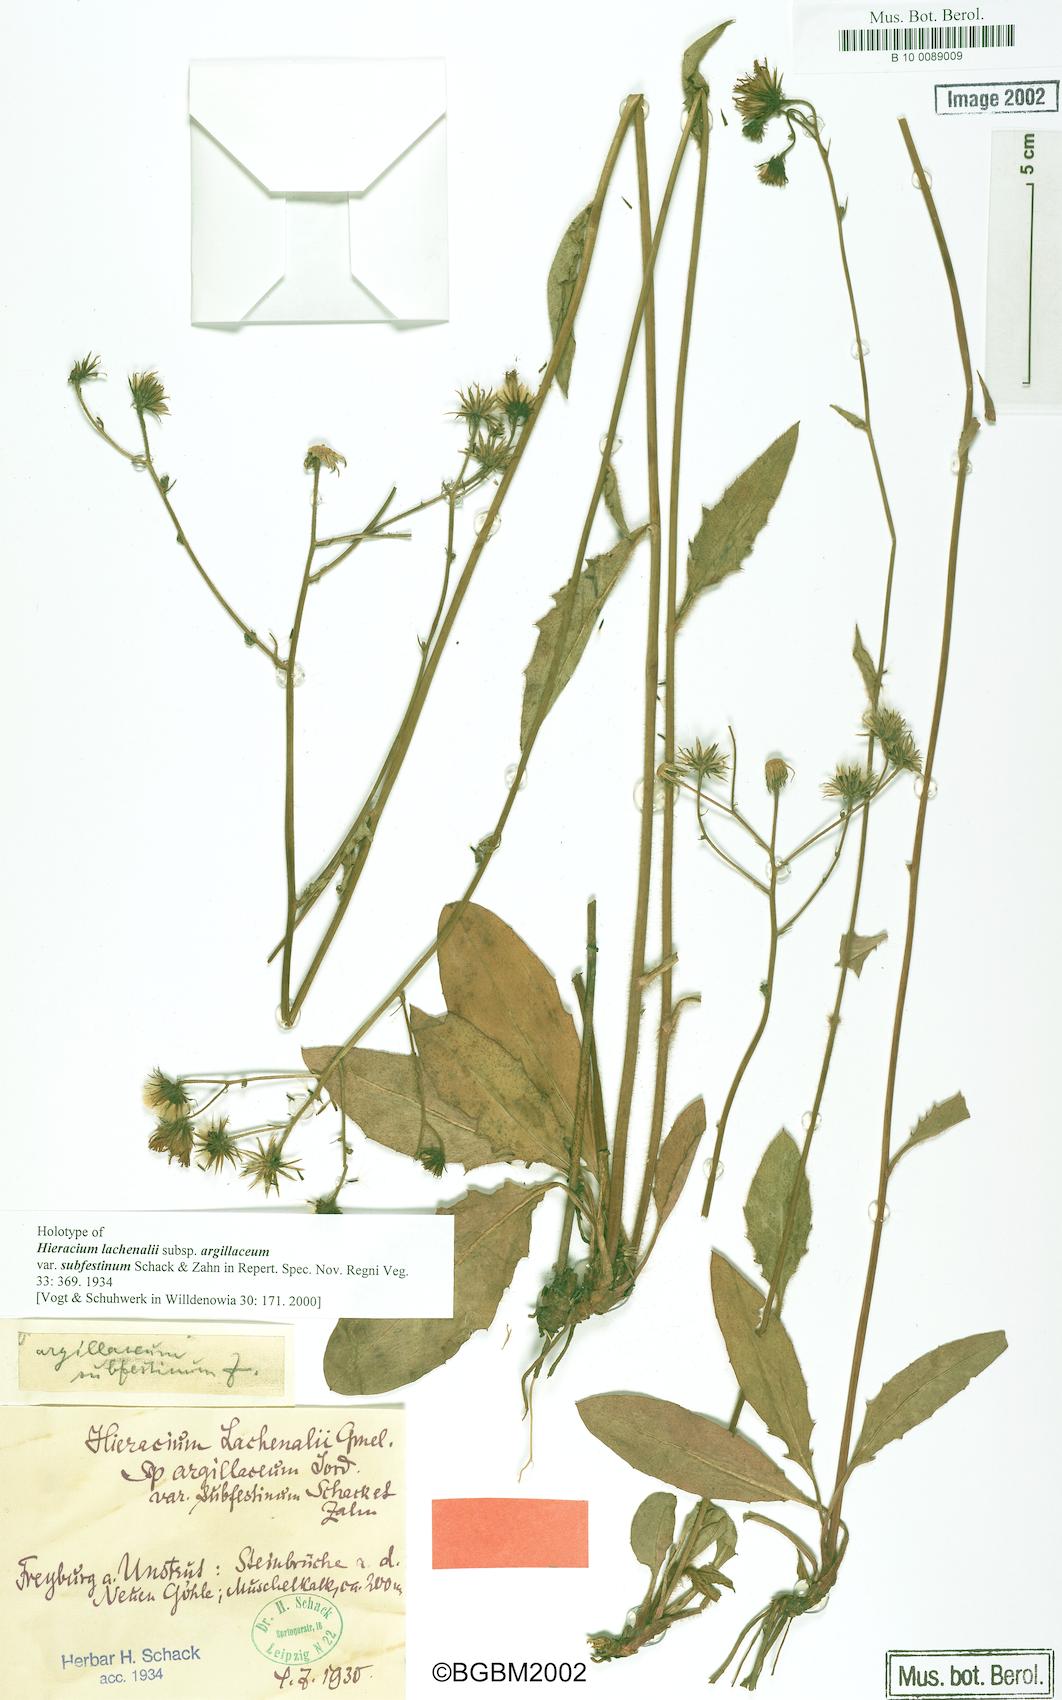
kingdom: Plantae
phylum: Tracheophyta
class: Magnoliopsida
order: Asterales
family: Asteraceae
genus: Hieracium
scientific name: Hieracium lachenalii
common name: Common hawkweed
